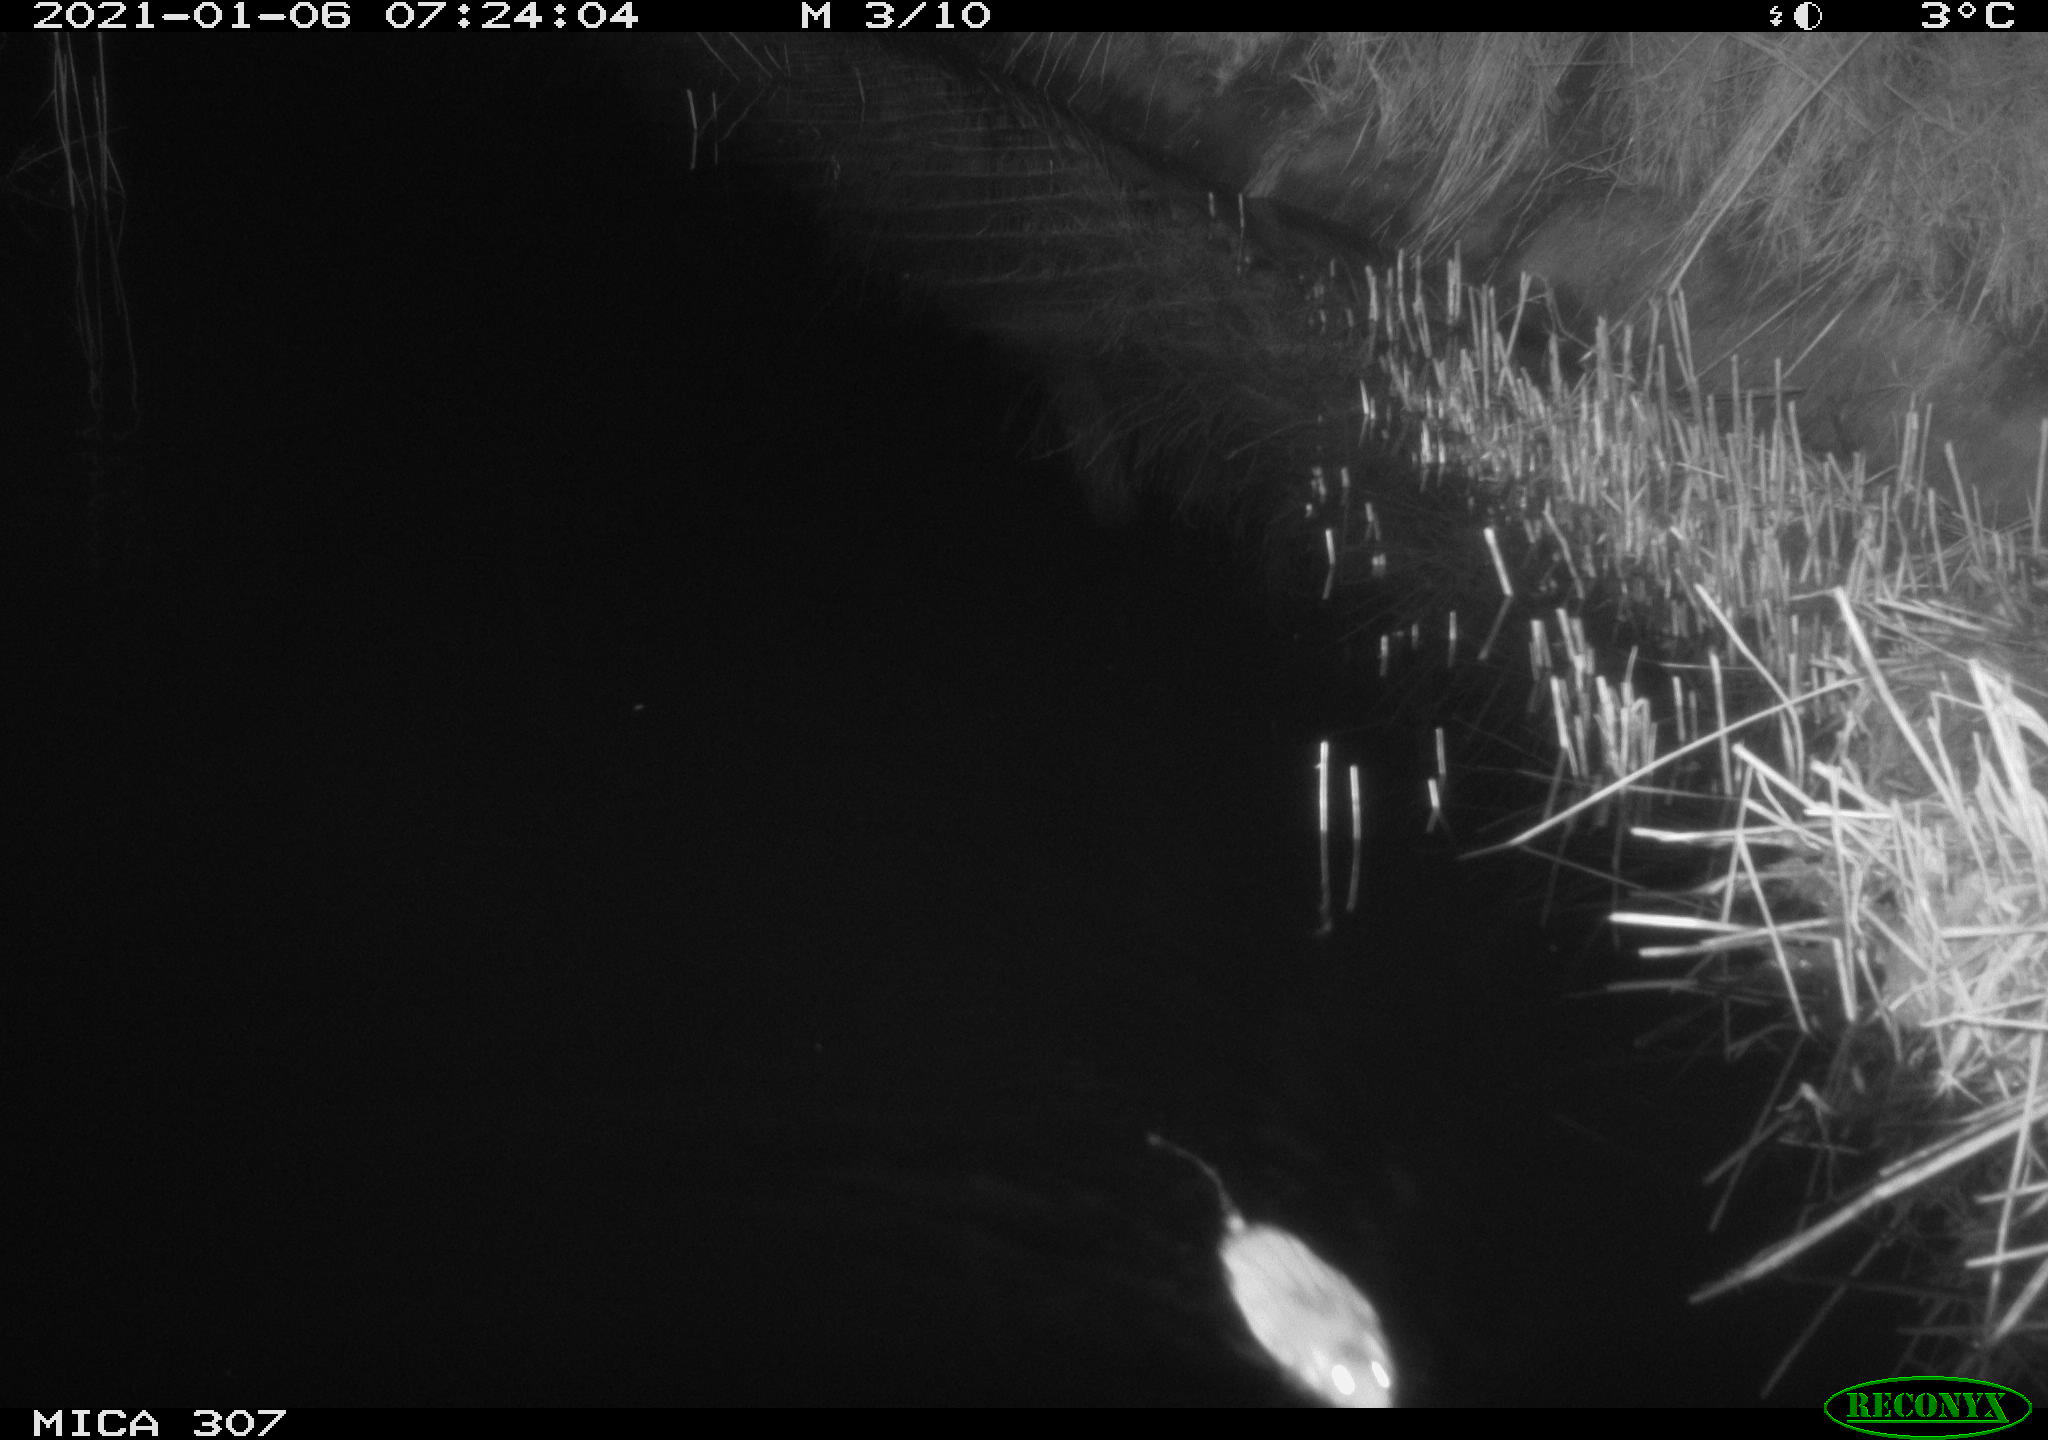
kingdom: Animalia
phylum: Chordata
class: Mammalia
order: Rodentia
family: Muridae
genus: Rattus
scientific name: Rattus norvegicus
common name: Brown rat
